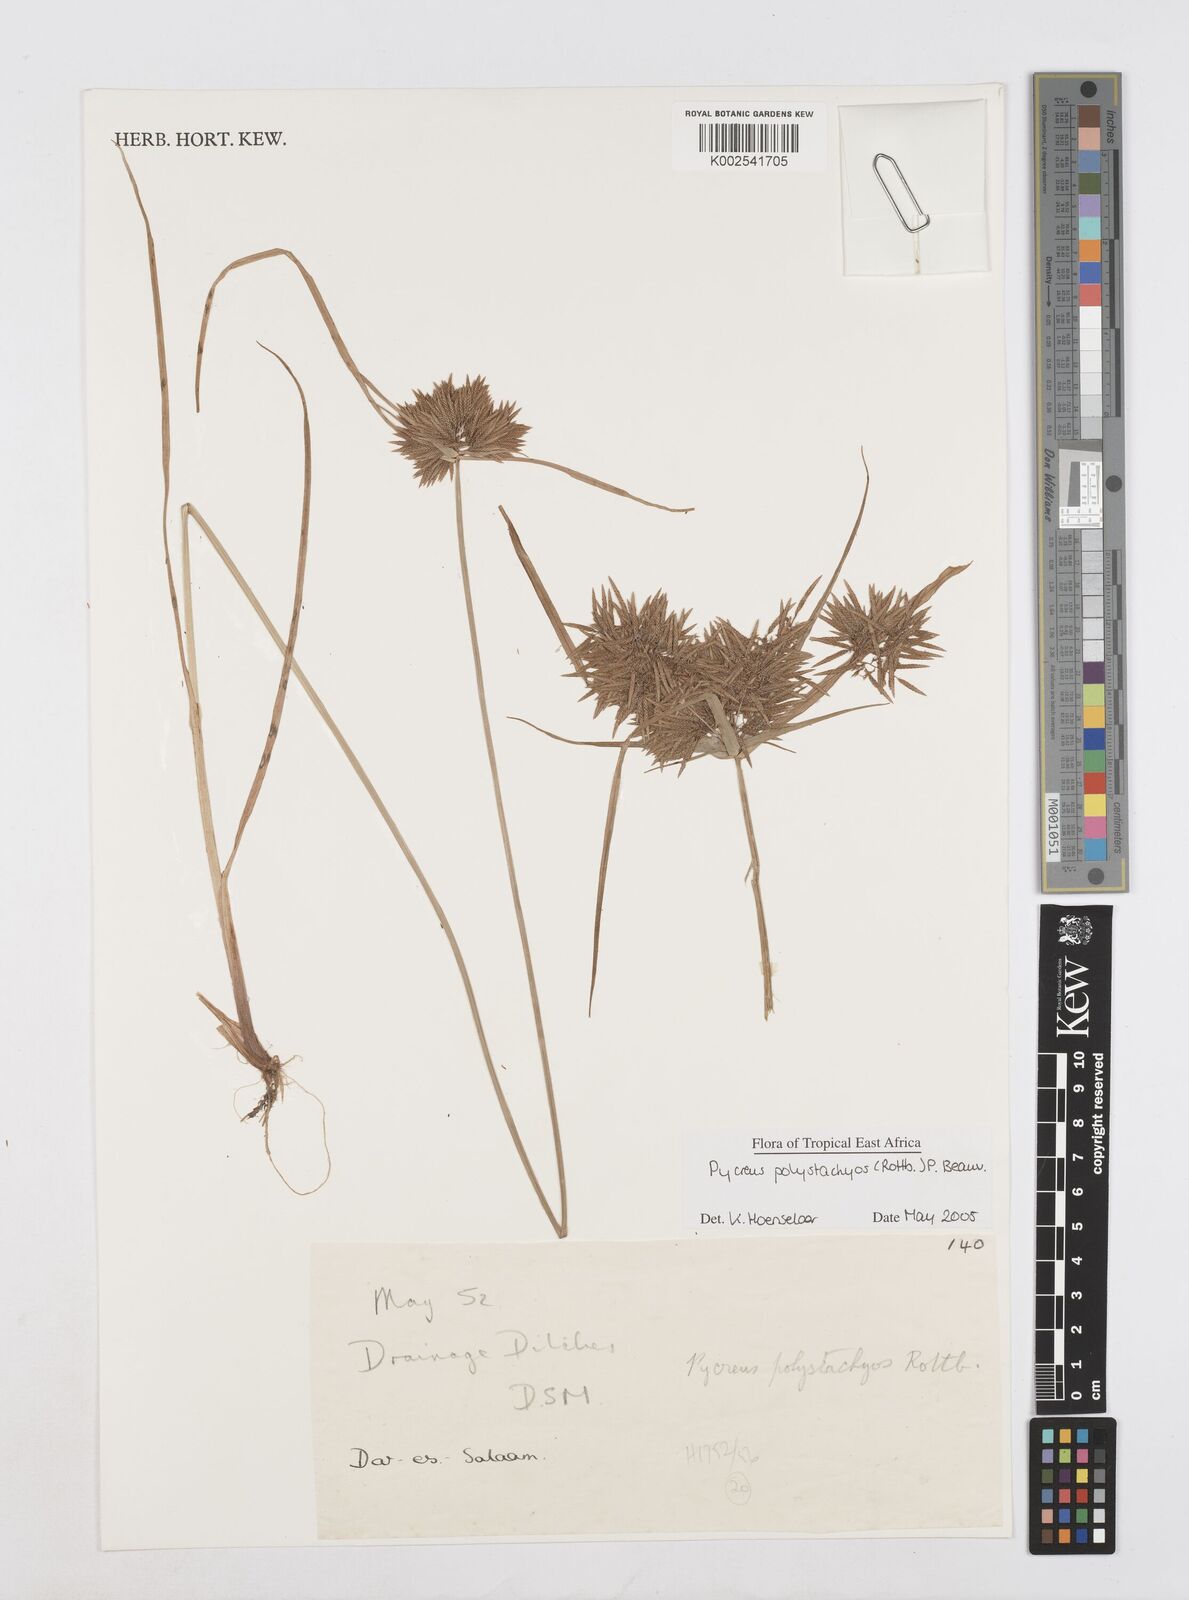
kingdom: Plantae
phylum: Tracheophyta
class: Liliopsida
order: Poales
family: Cyperaceae
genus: Cyperus
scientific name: Cyperus polystachyos
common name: Bunchy flat sedge
